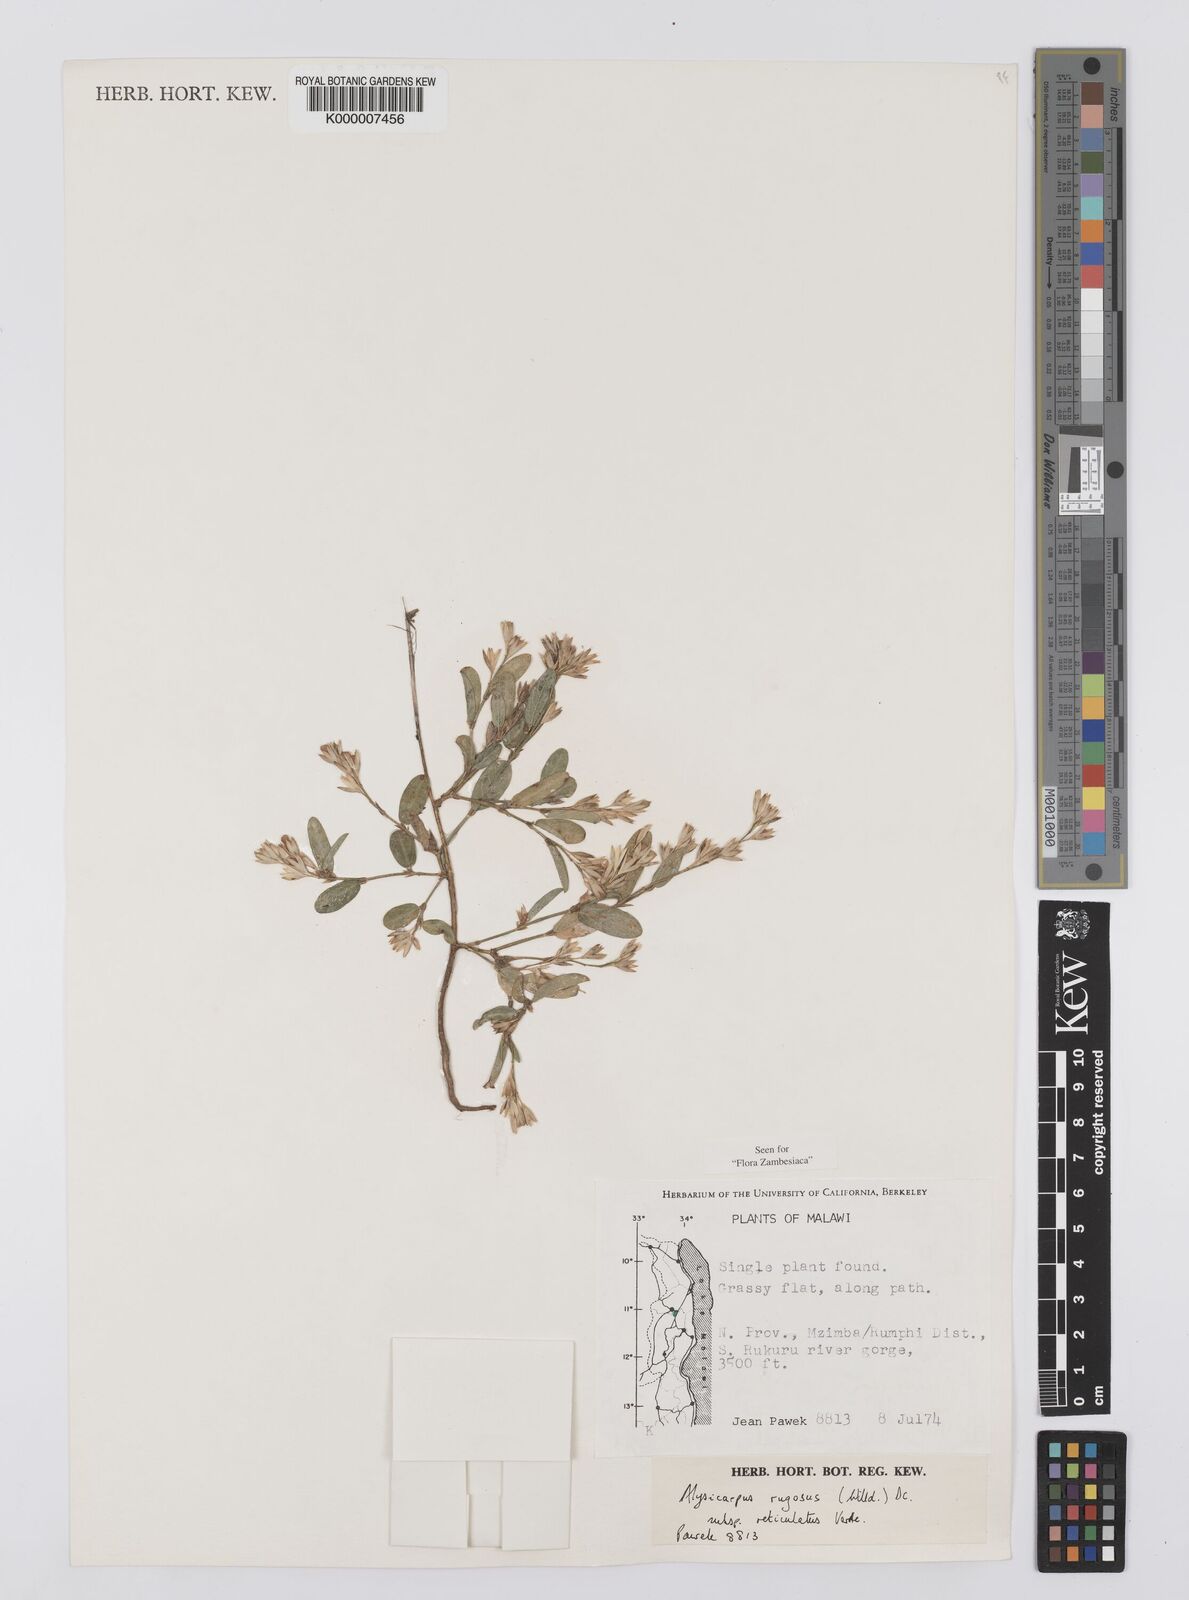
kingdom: Plantae
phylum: Tracheophyta
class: Magnoliopsida
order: Fabales
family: Fabaceae
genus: Alysicarpus
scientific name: Alysicarpus rugosus
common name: Red moneywort
